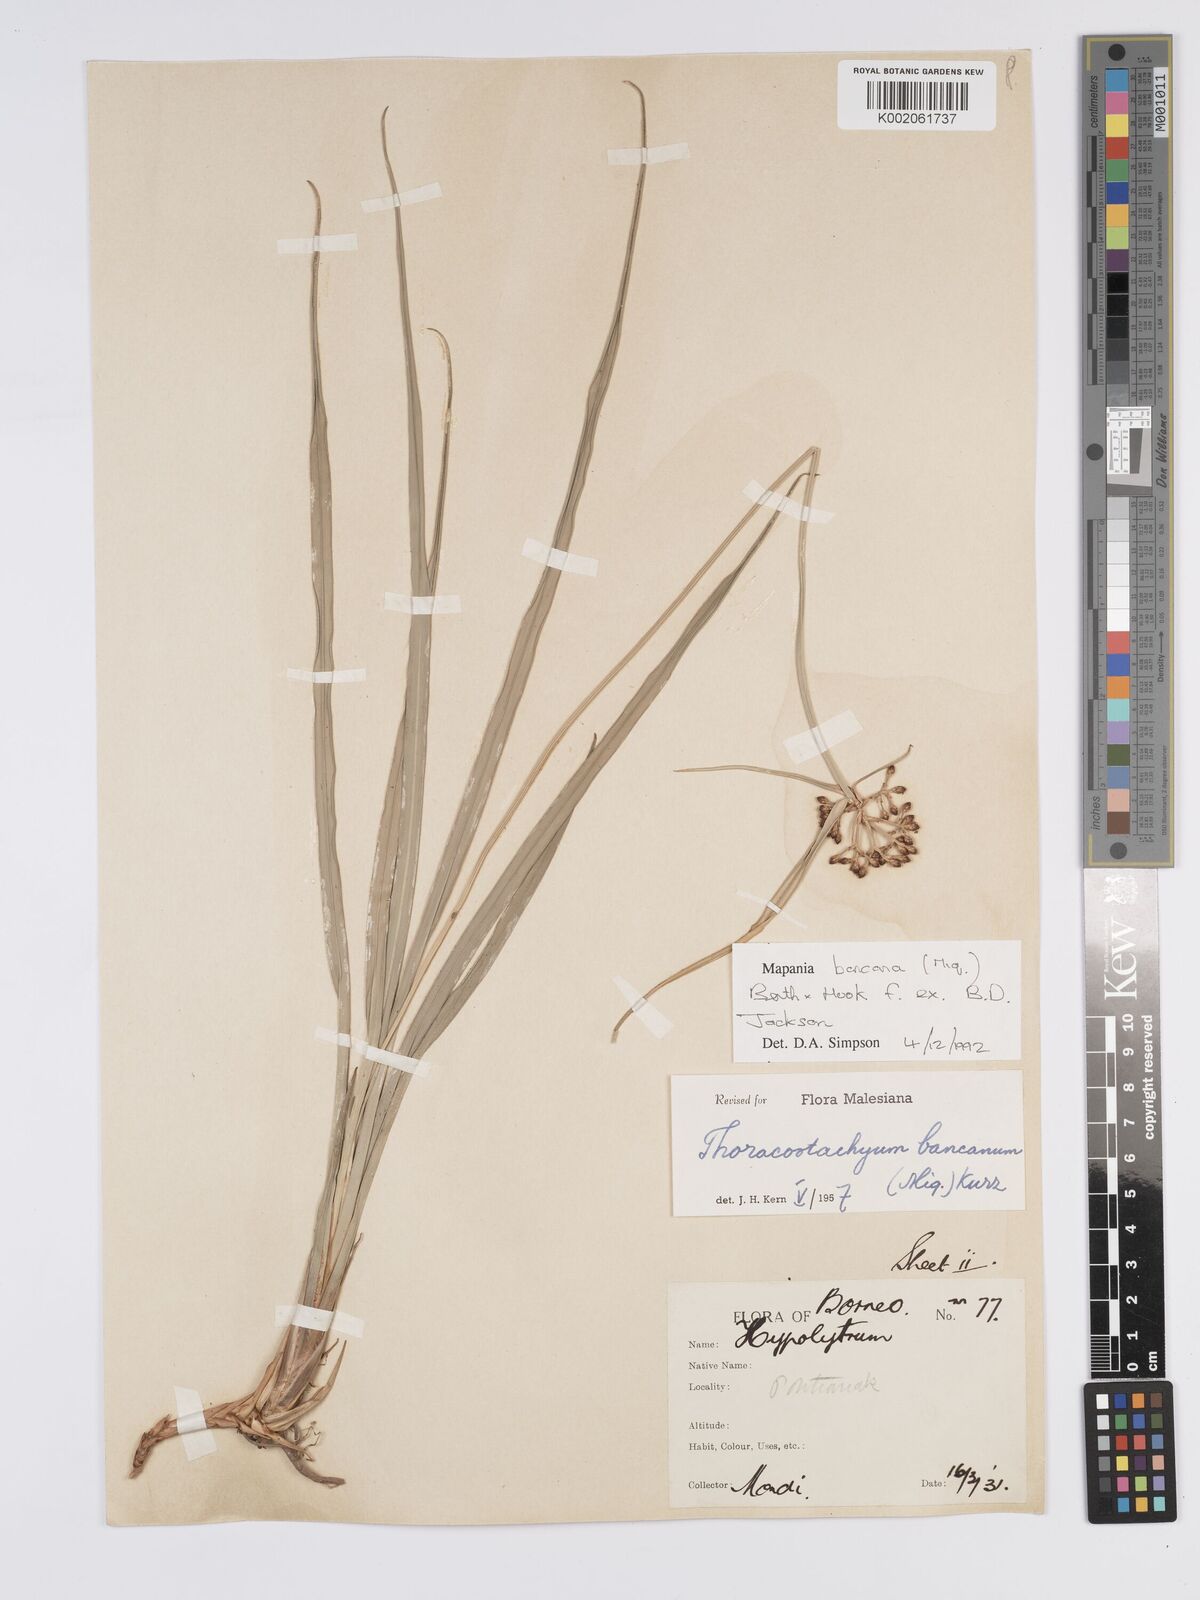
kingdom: Plantae
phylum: Tracheophyta
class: Liliopsida
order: Poales
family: Cyperaceae
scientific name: Cyperaceae
